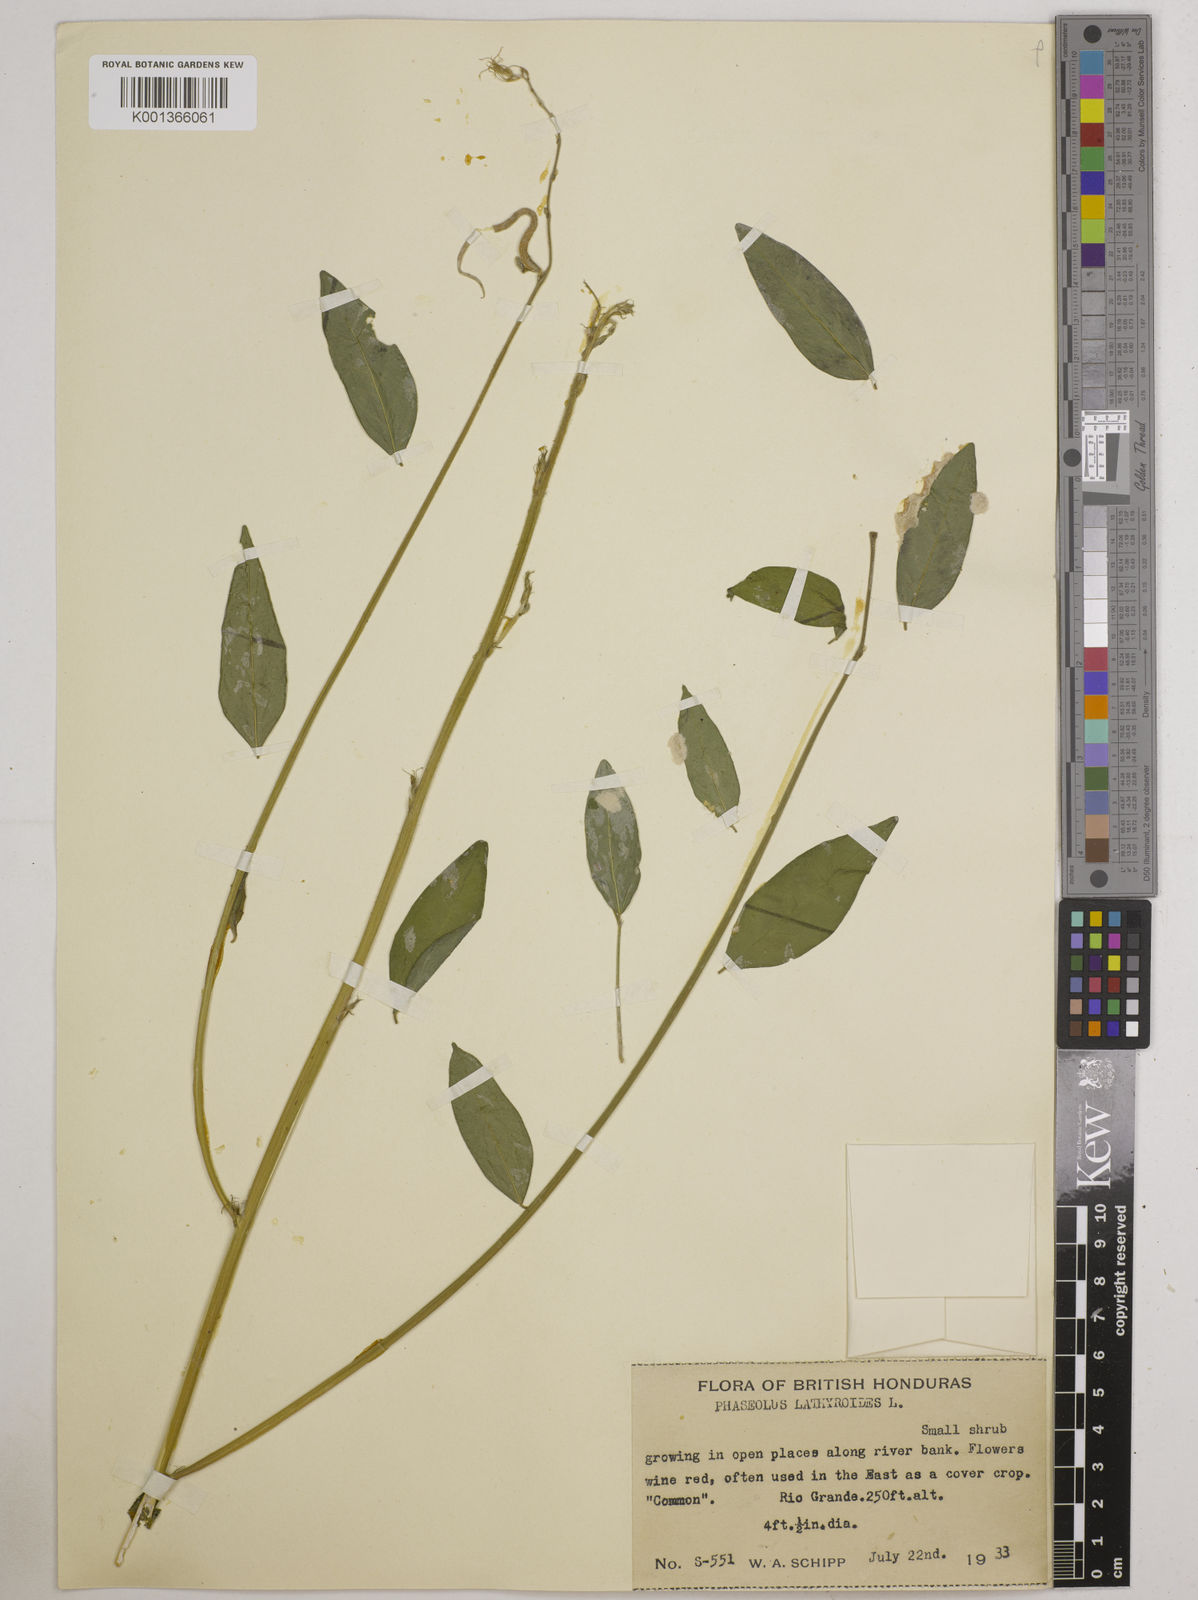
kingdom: Plantae
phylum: Tracheophyta
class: Magnoliopsida
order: Fabales
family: Fabaceae
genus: Macroptilium
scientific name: Macroptilium lathyroides
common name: Wild bushbean
